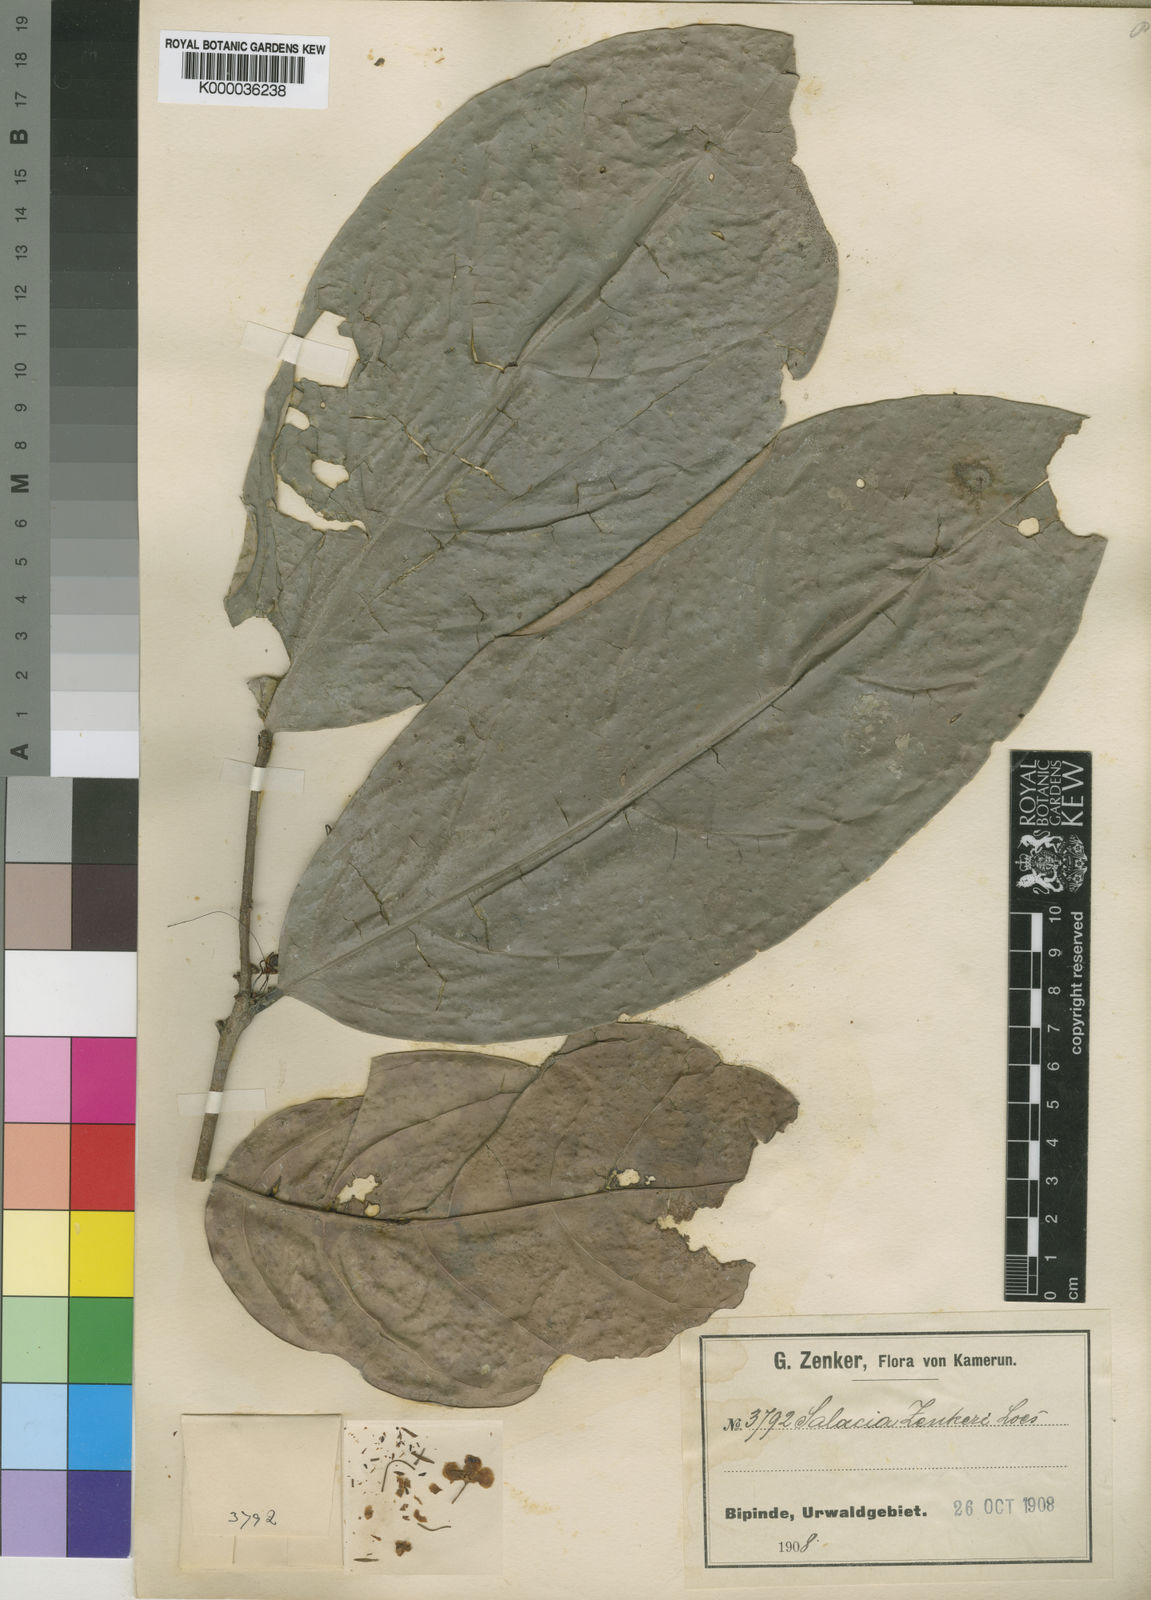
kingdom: Plantae
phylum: Tracheophyta
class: Magnoliopsida
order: Celastrales
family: Celastraceae
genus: Salacia
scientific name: Salacia zenkeri
